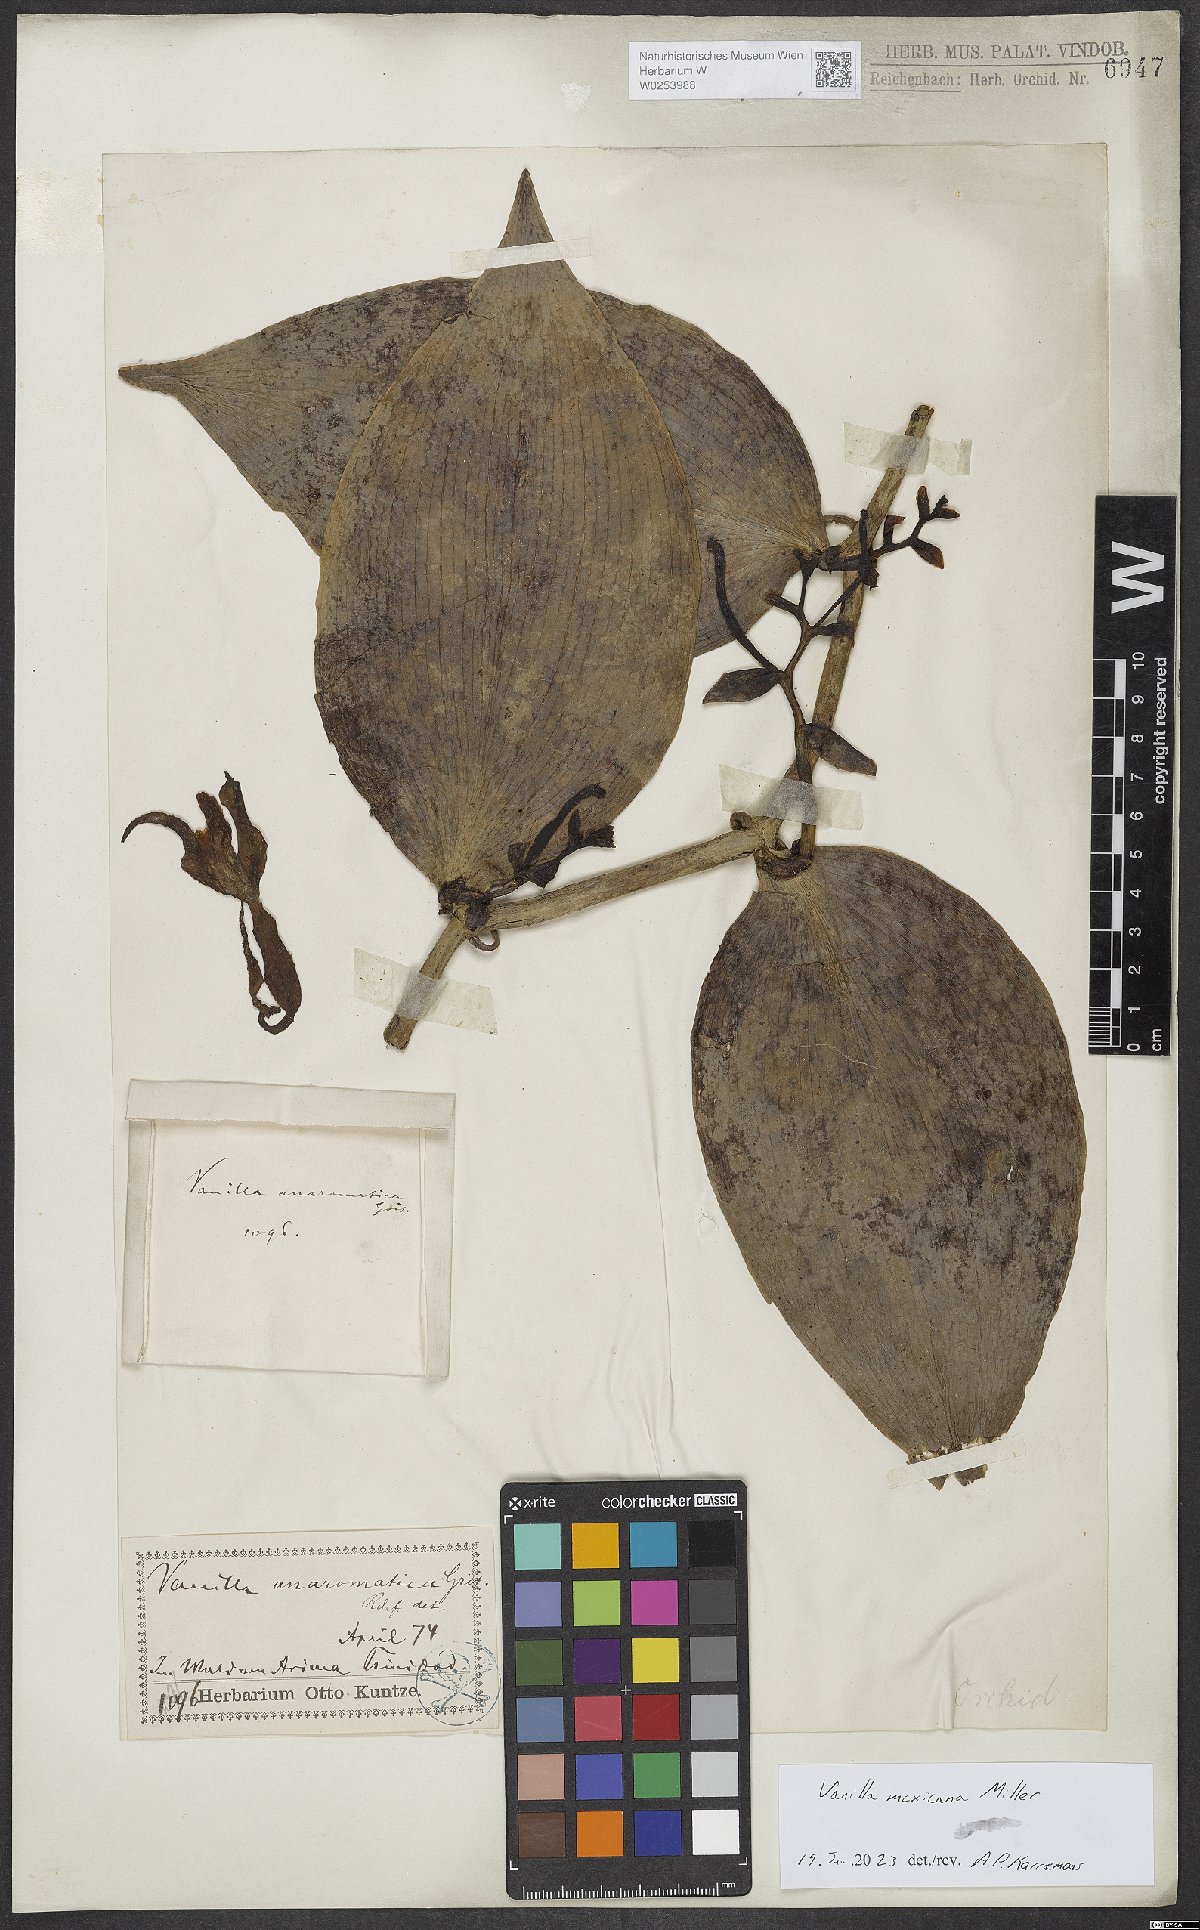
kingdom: Plantae
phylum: Tracheophyta
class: Liliopsida
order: Asparagales
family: Orchidaceae
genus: Vanilla
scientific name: Vanilla mexicana
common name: Mexican vanilla
